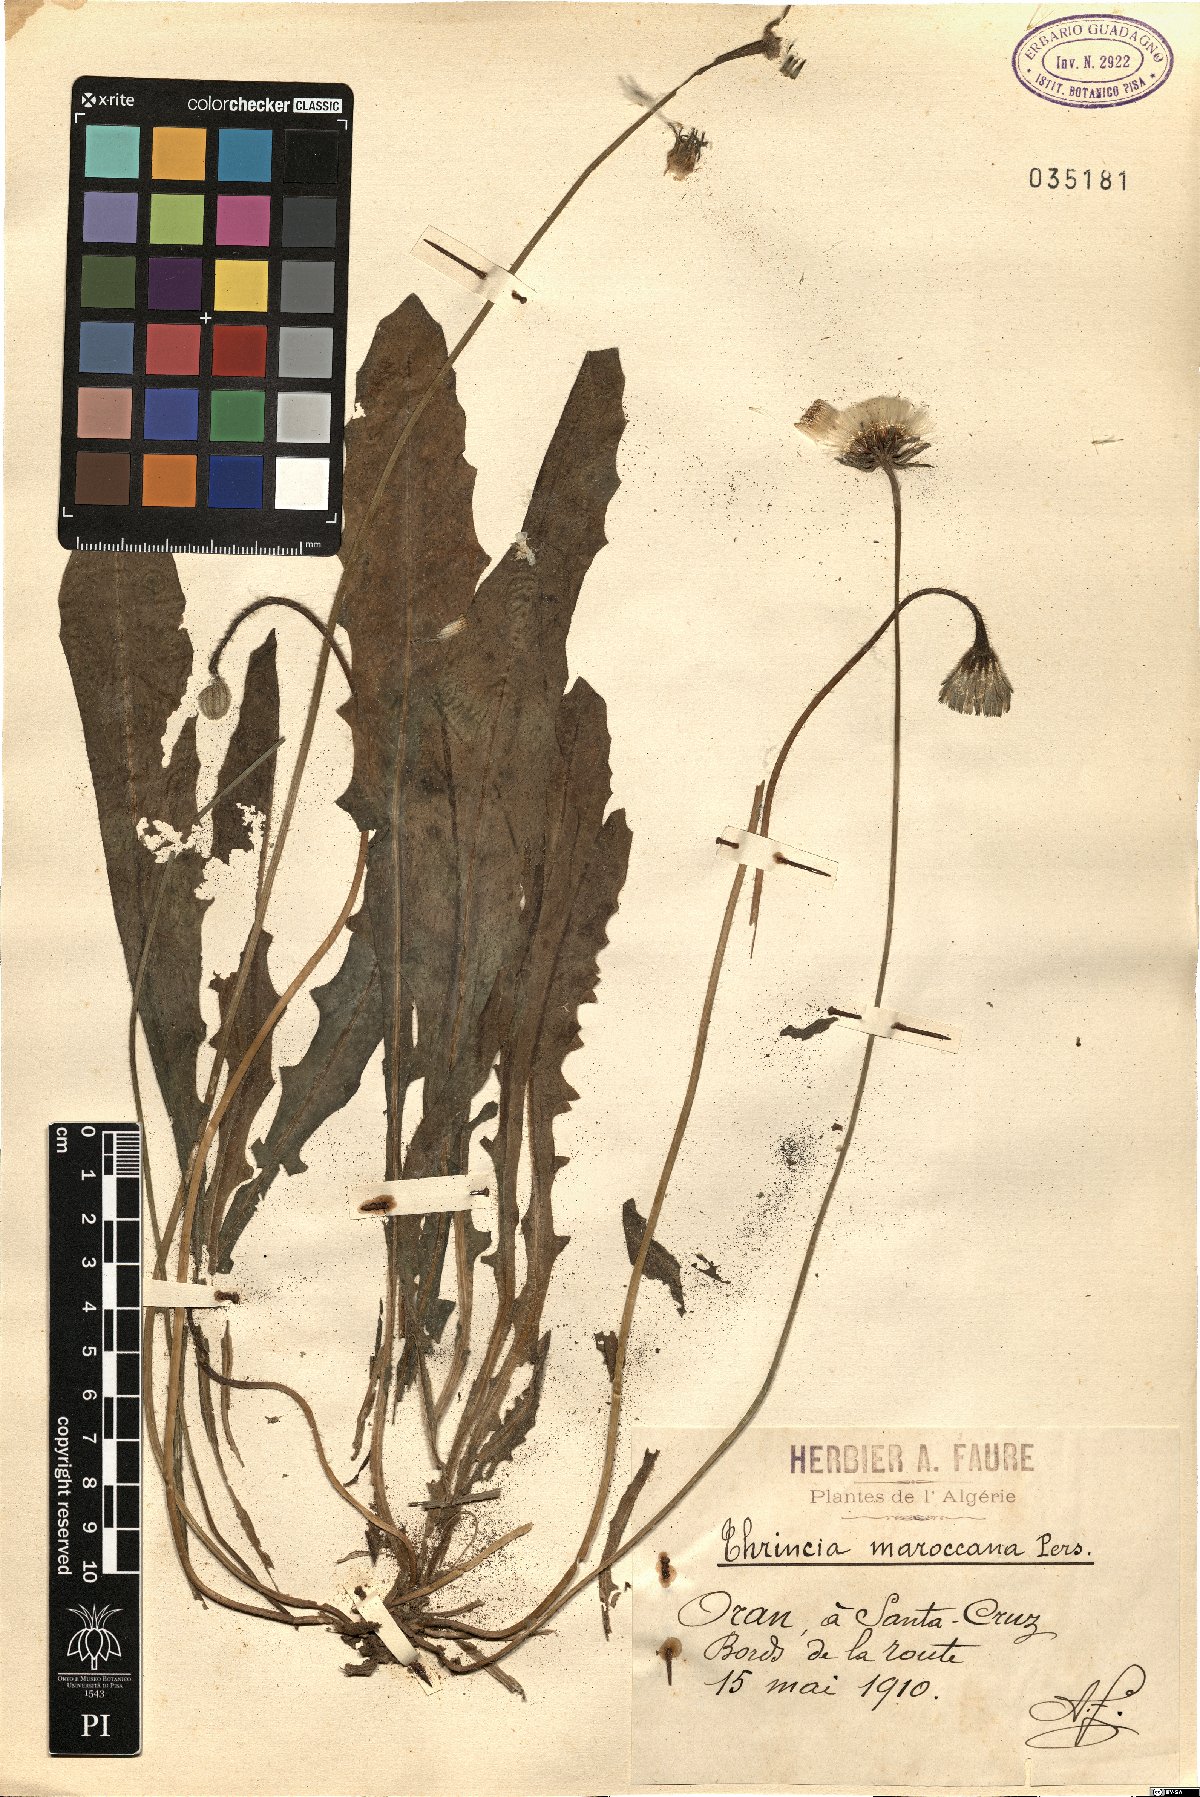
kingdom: Plantae
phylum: Tracheophyta
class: Magnoliopsida
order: Asterales
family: Asteraceae
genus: Thrincia
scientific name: Thrincia maroccana
